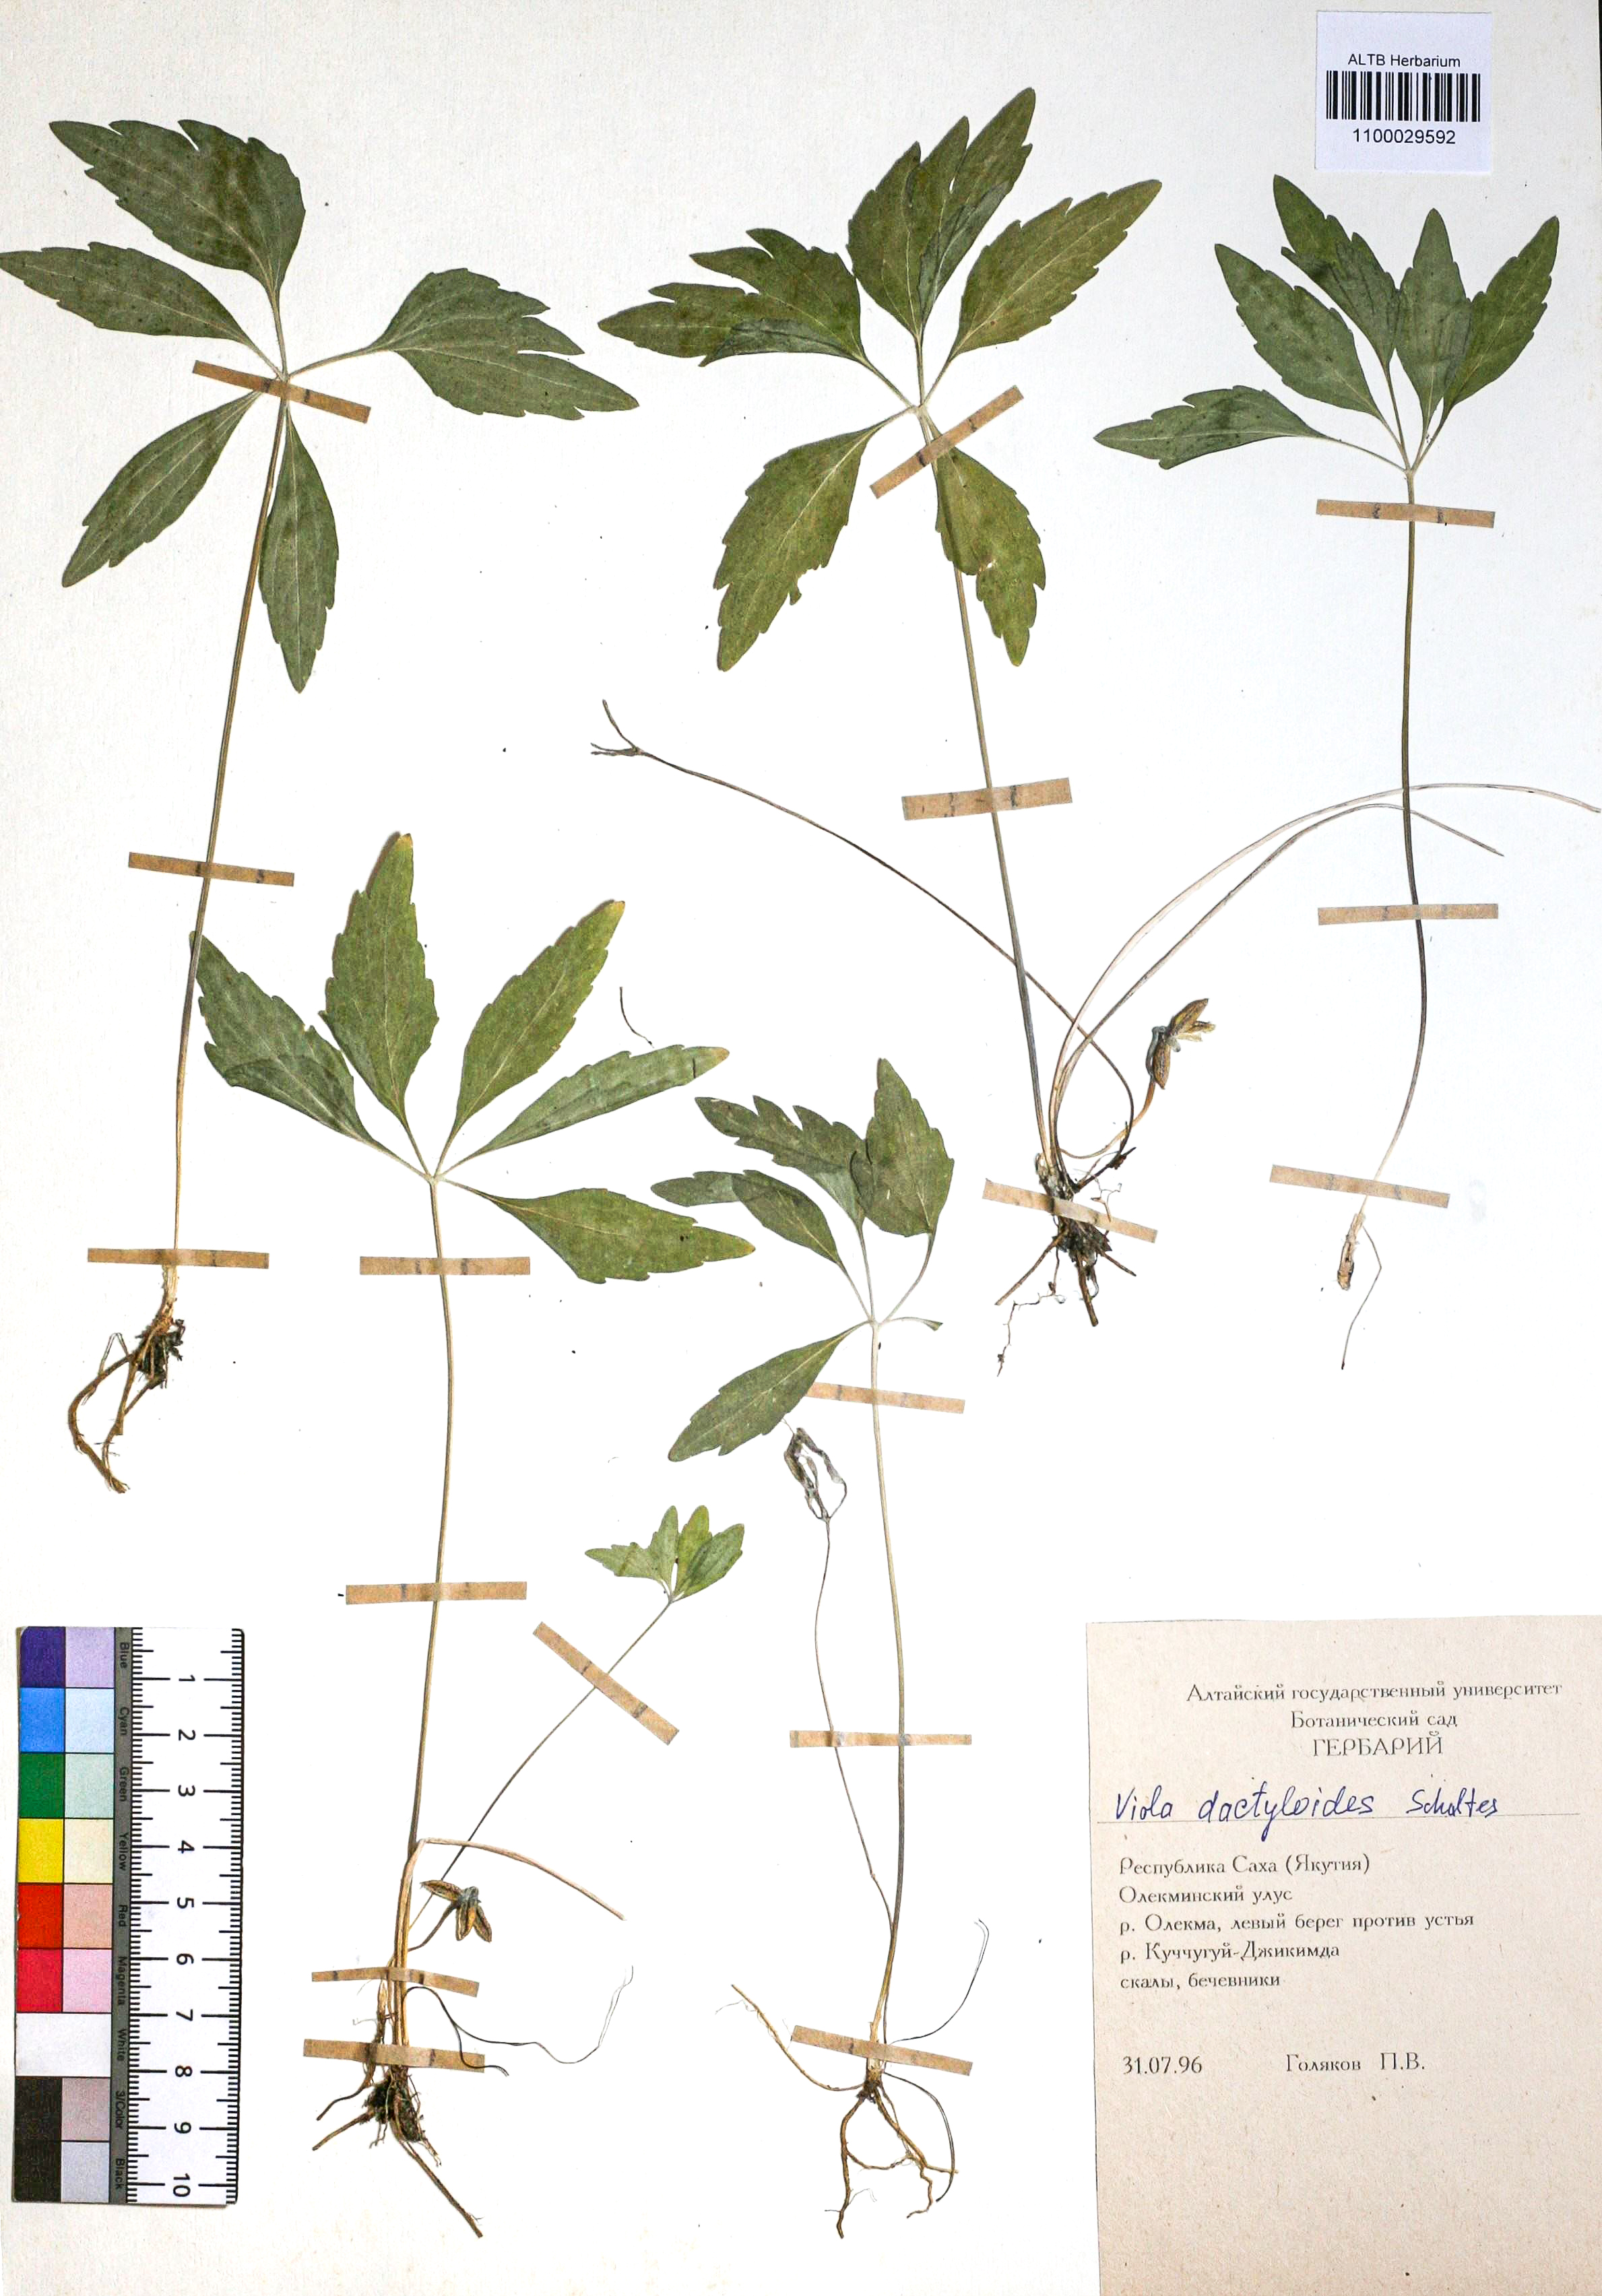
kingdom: Plantae
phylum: Tracheophyta
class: Magnoliopsida
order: Malpighiales
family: Violaceae
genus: Viola
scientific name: Viola dactyloides
